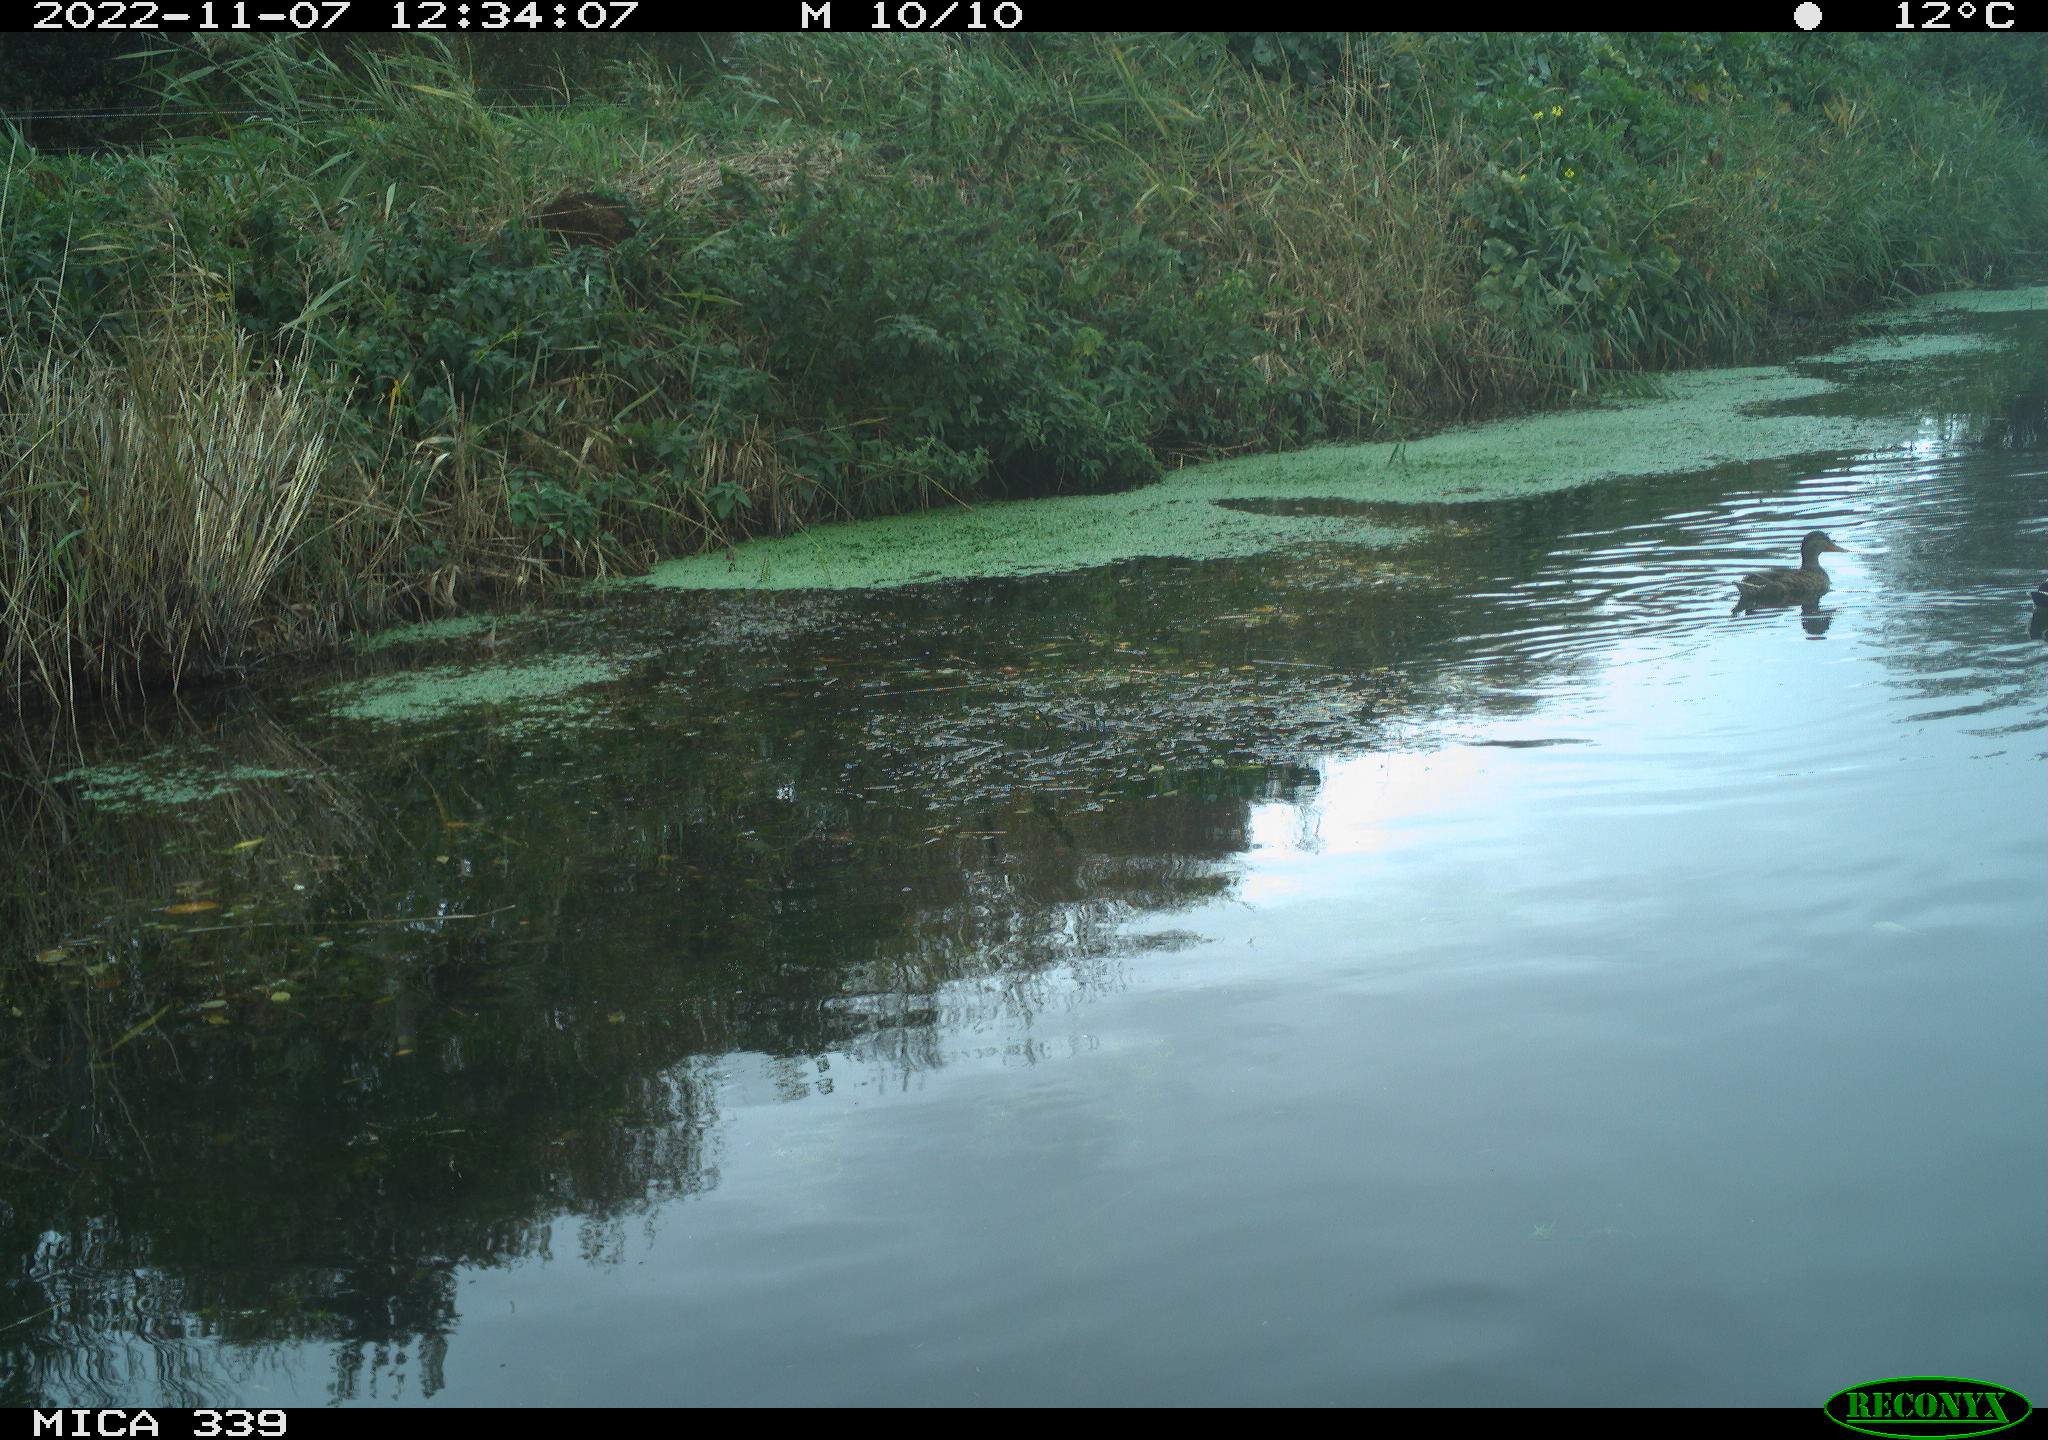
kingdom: Animalia
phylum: Chordata
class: Aves
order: Anseriformes
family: Anatidae
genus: Anas
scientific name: Anas platyrhynchos
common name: Mallard
